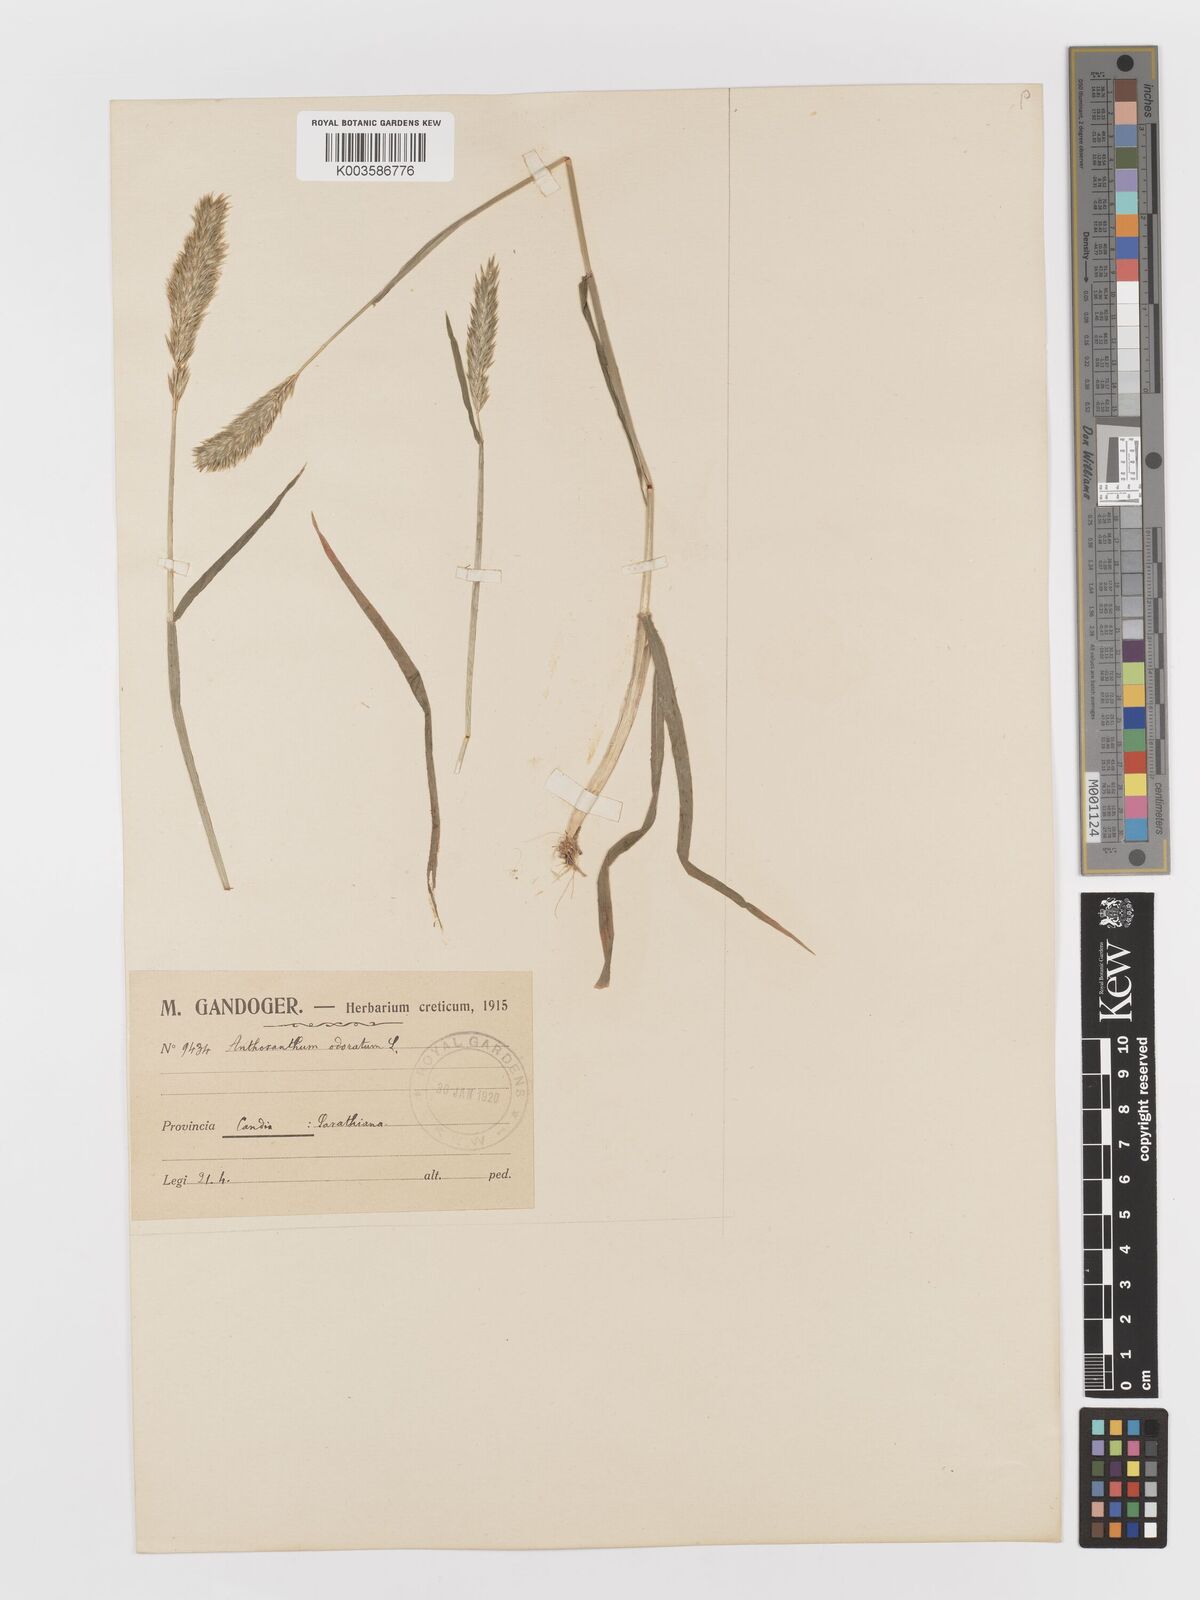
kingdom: Plantae
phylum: Tracheophyta
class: Liliopsida
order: Poales
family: Poaceae
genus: Anthoxanthum
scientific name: Anthoxanthum odoratum
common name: Sweet vernalgrass
